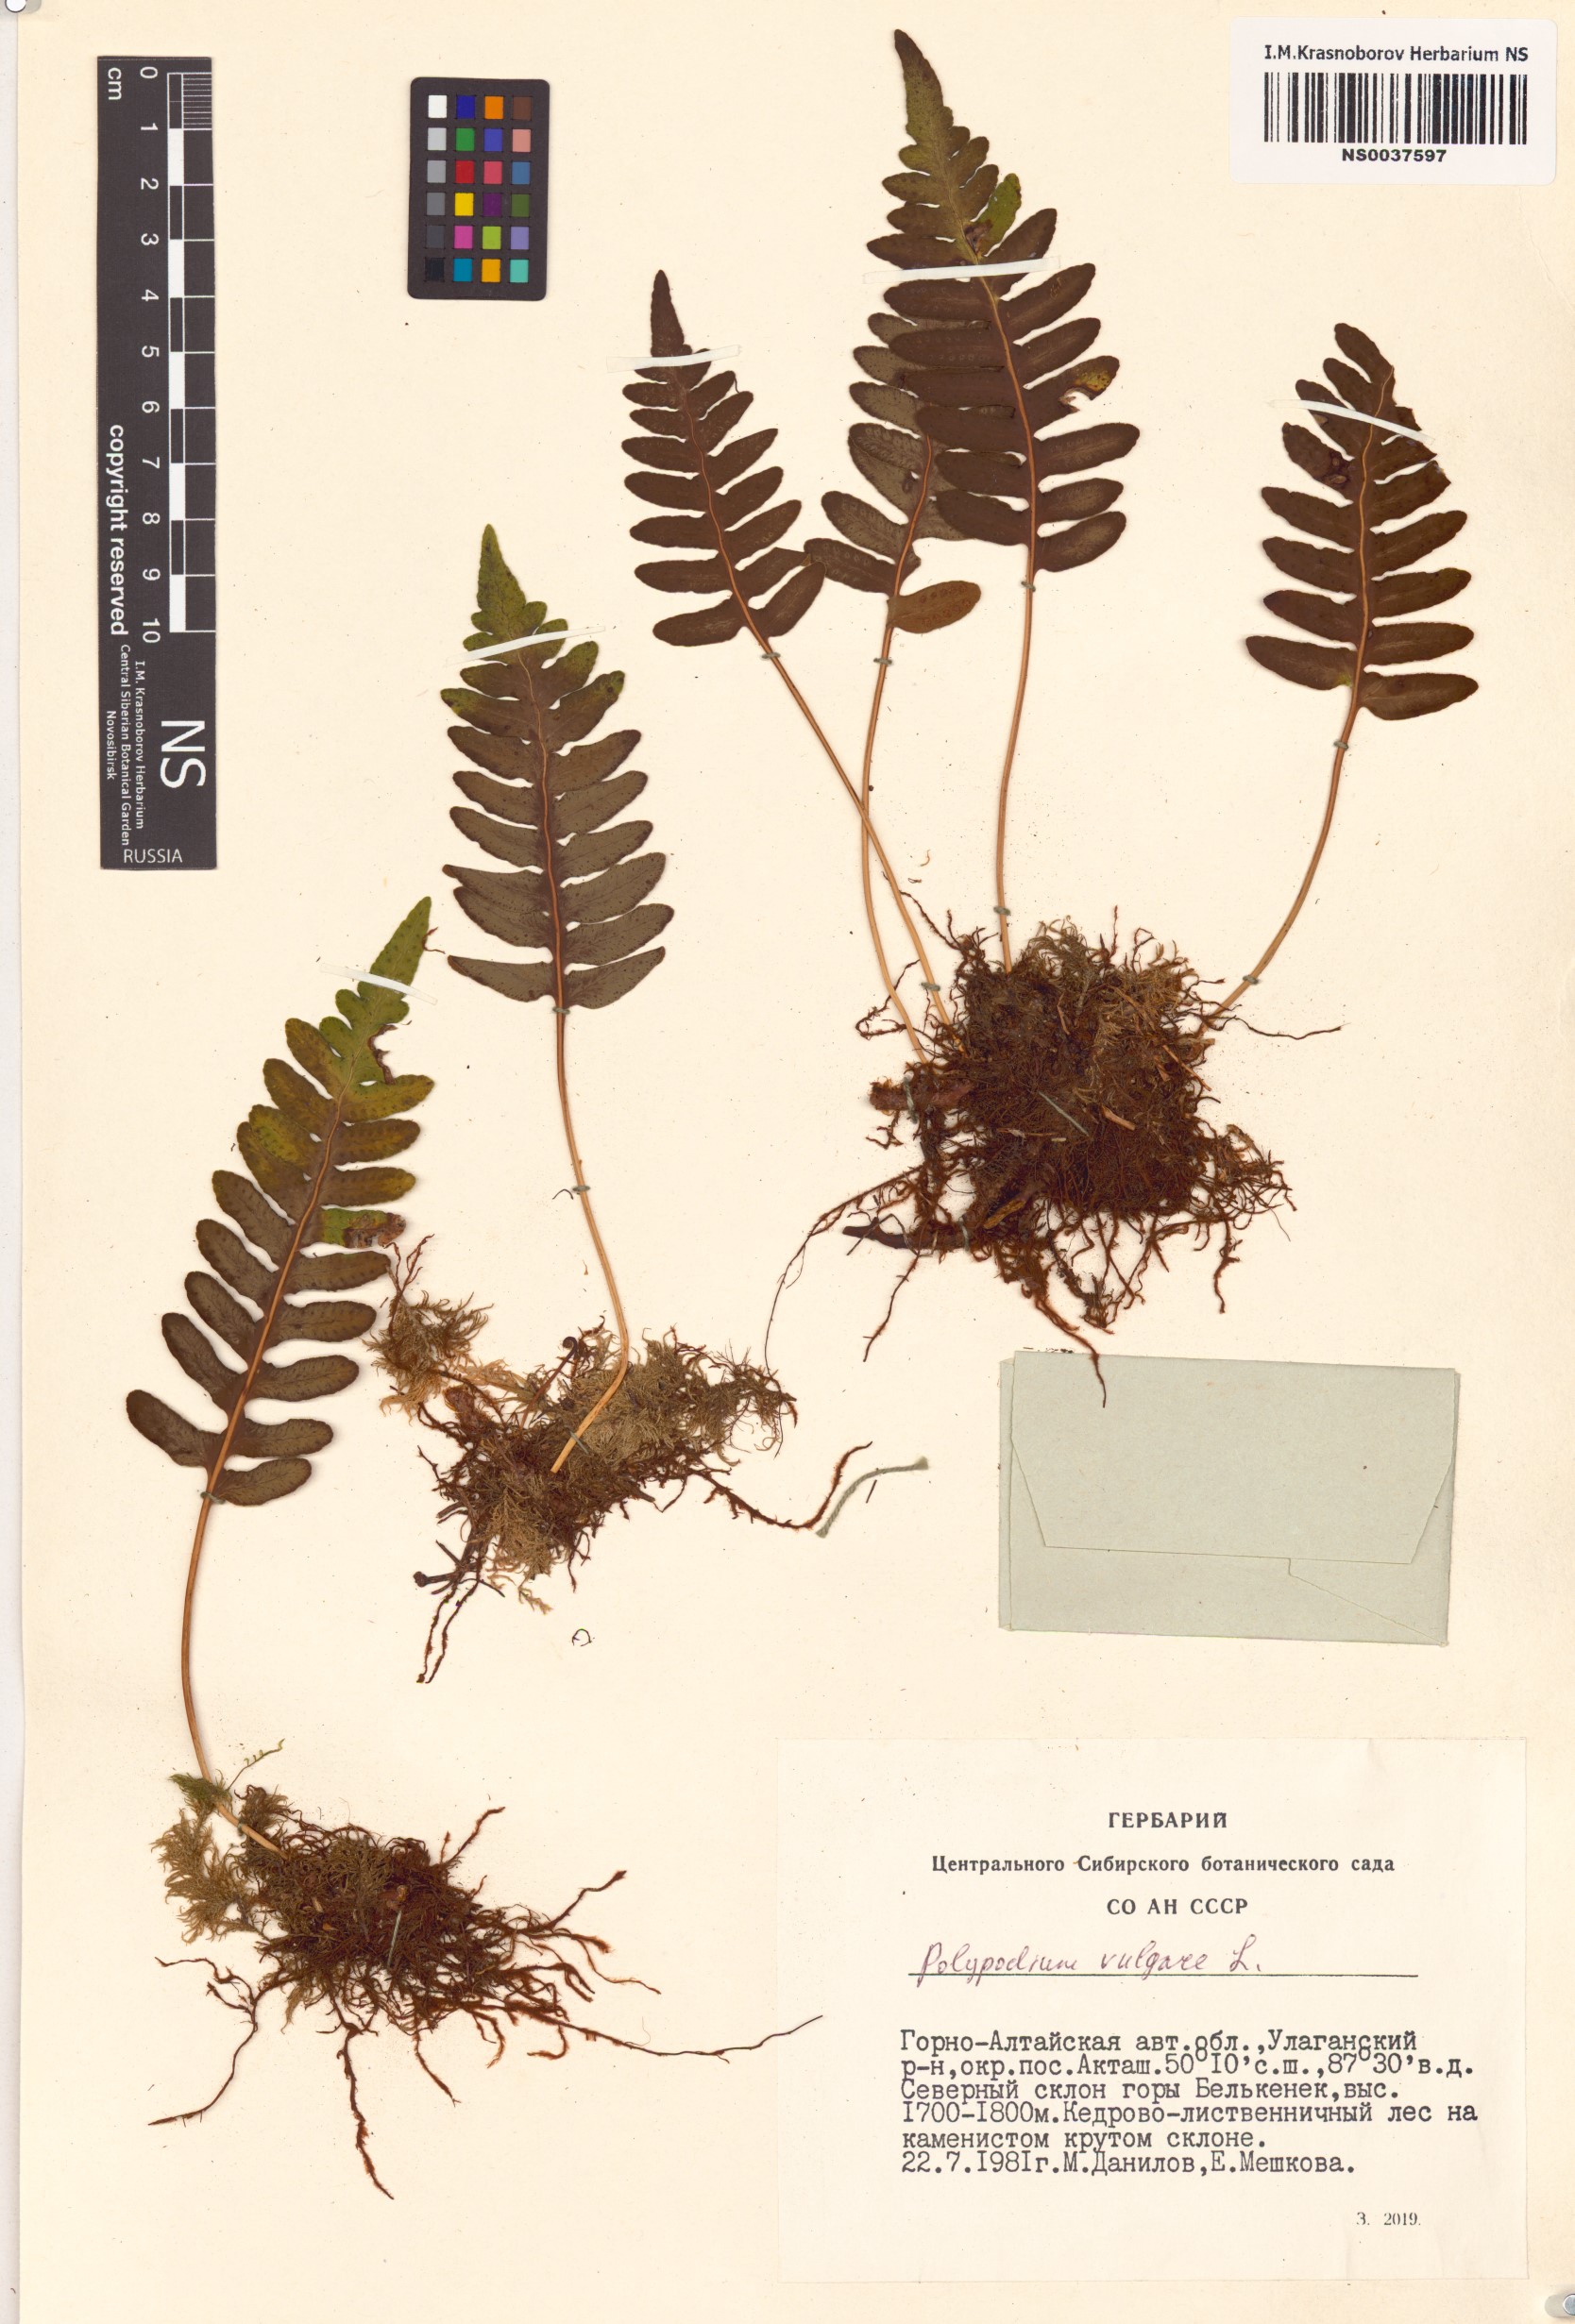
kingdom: Plantae
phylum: Tracheophyta
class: Polypodiopsida
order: Polypodiales
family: Polypodiaceae
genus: Polypodium
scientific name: Polypodium vulgare
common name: Common polypody
